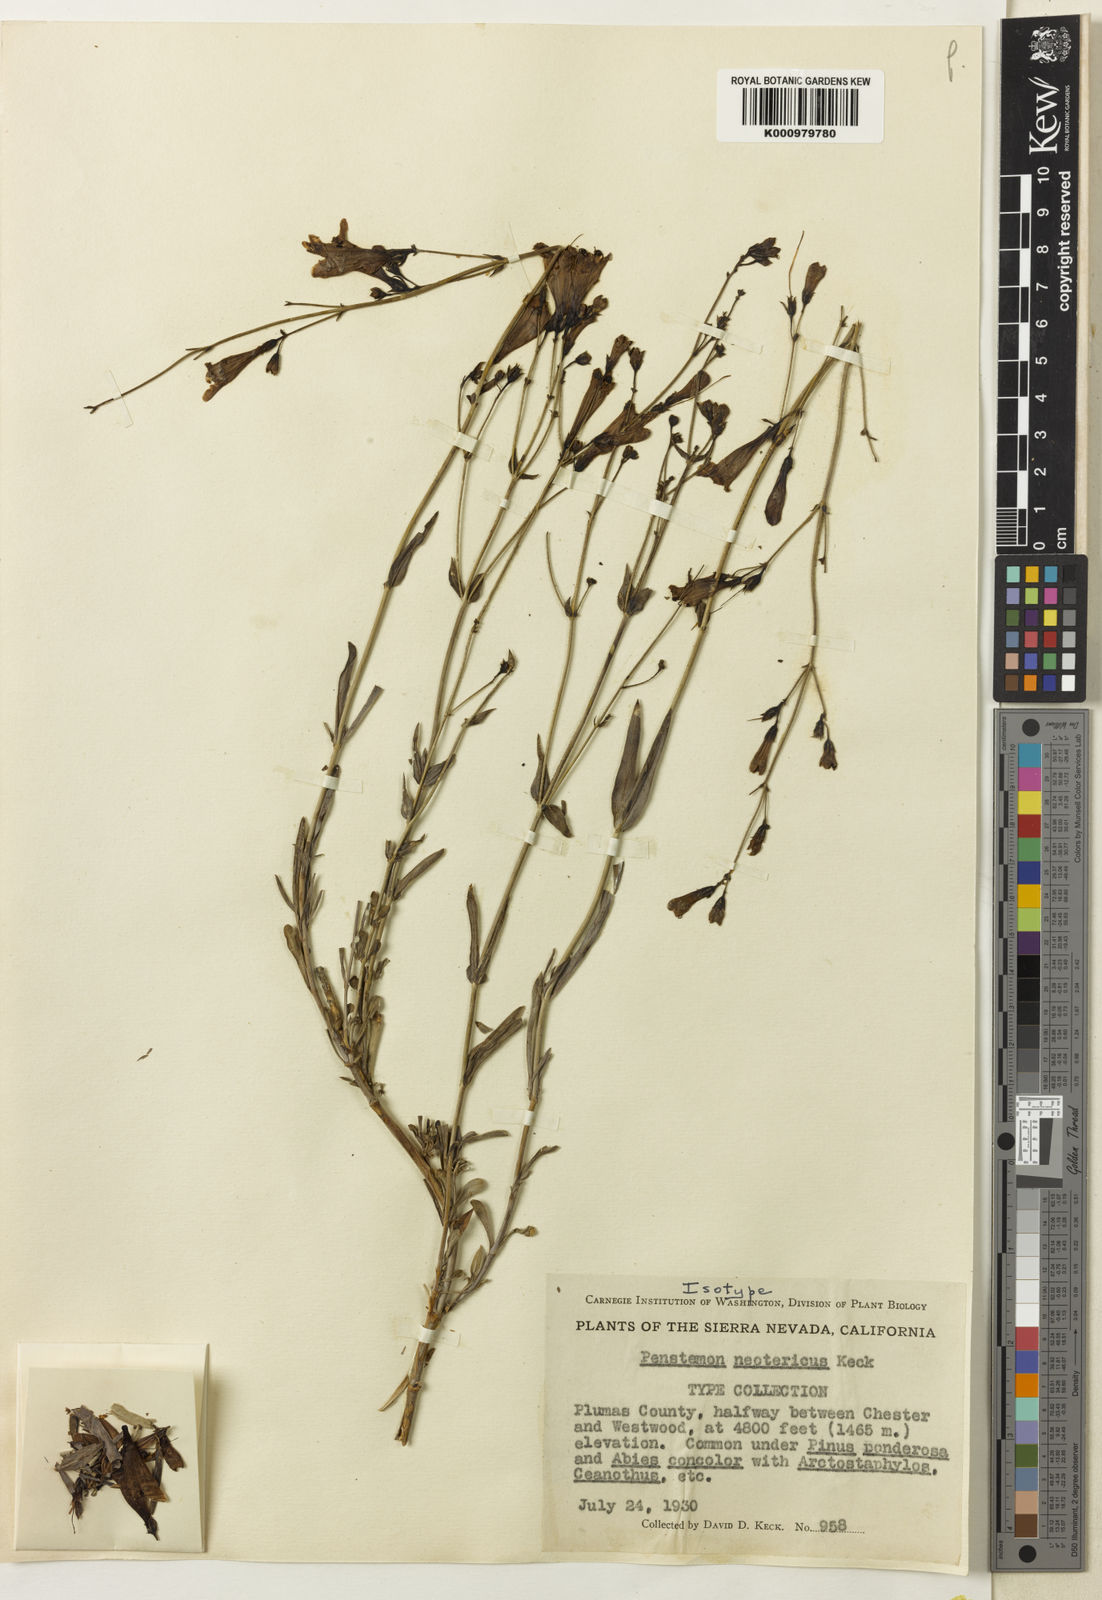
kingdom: Plantae
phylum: Tracheophyta
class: Magnoliopsida
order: Lamiales
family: Plantaginaceae
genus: Penstemon
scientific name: Penstemon
